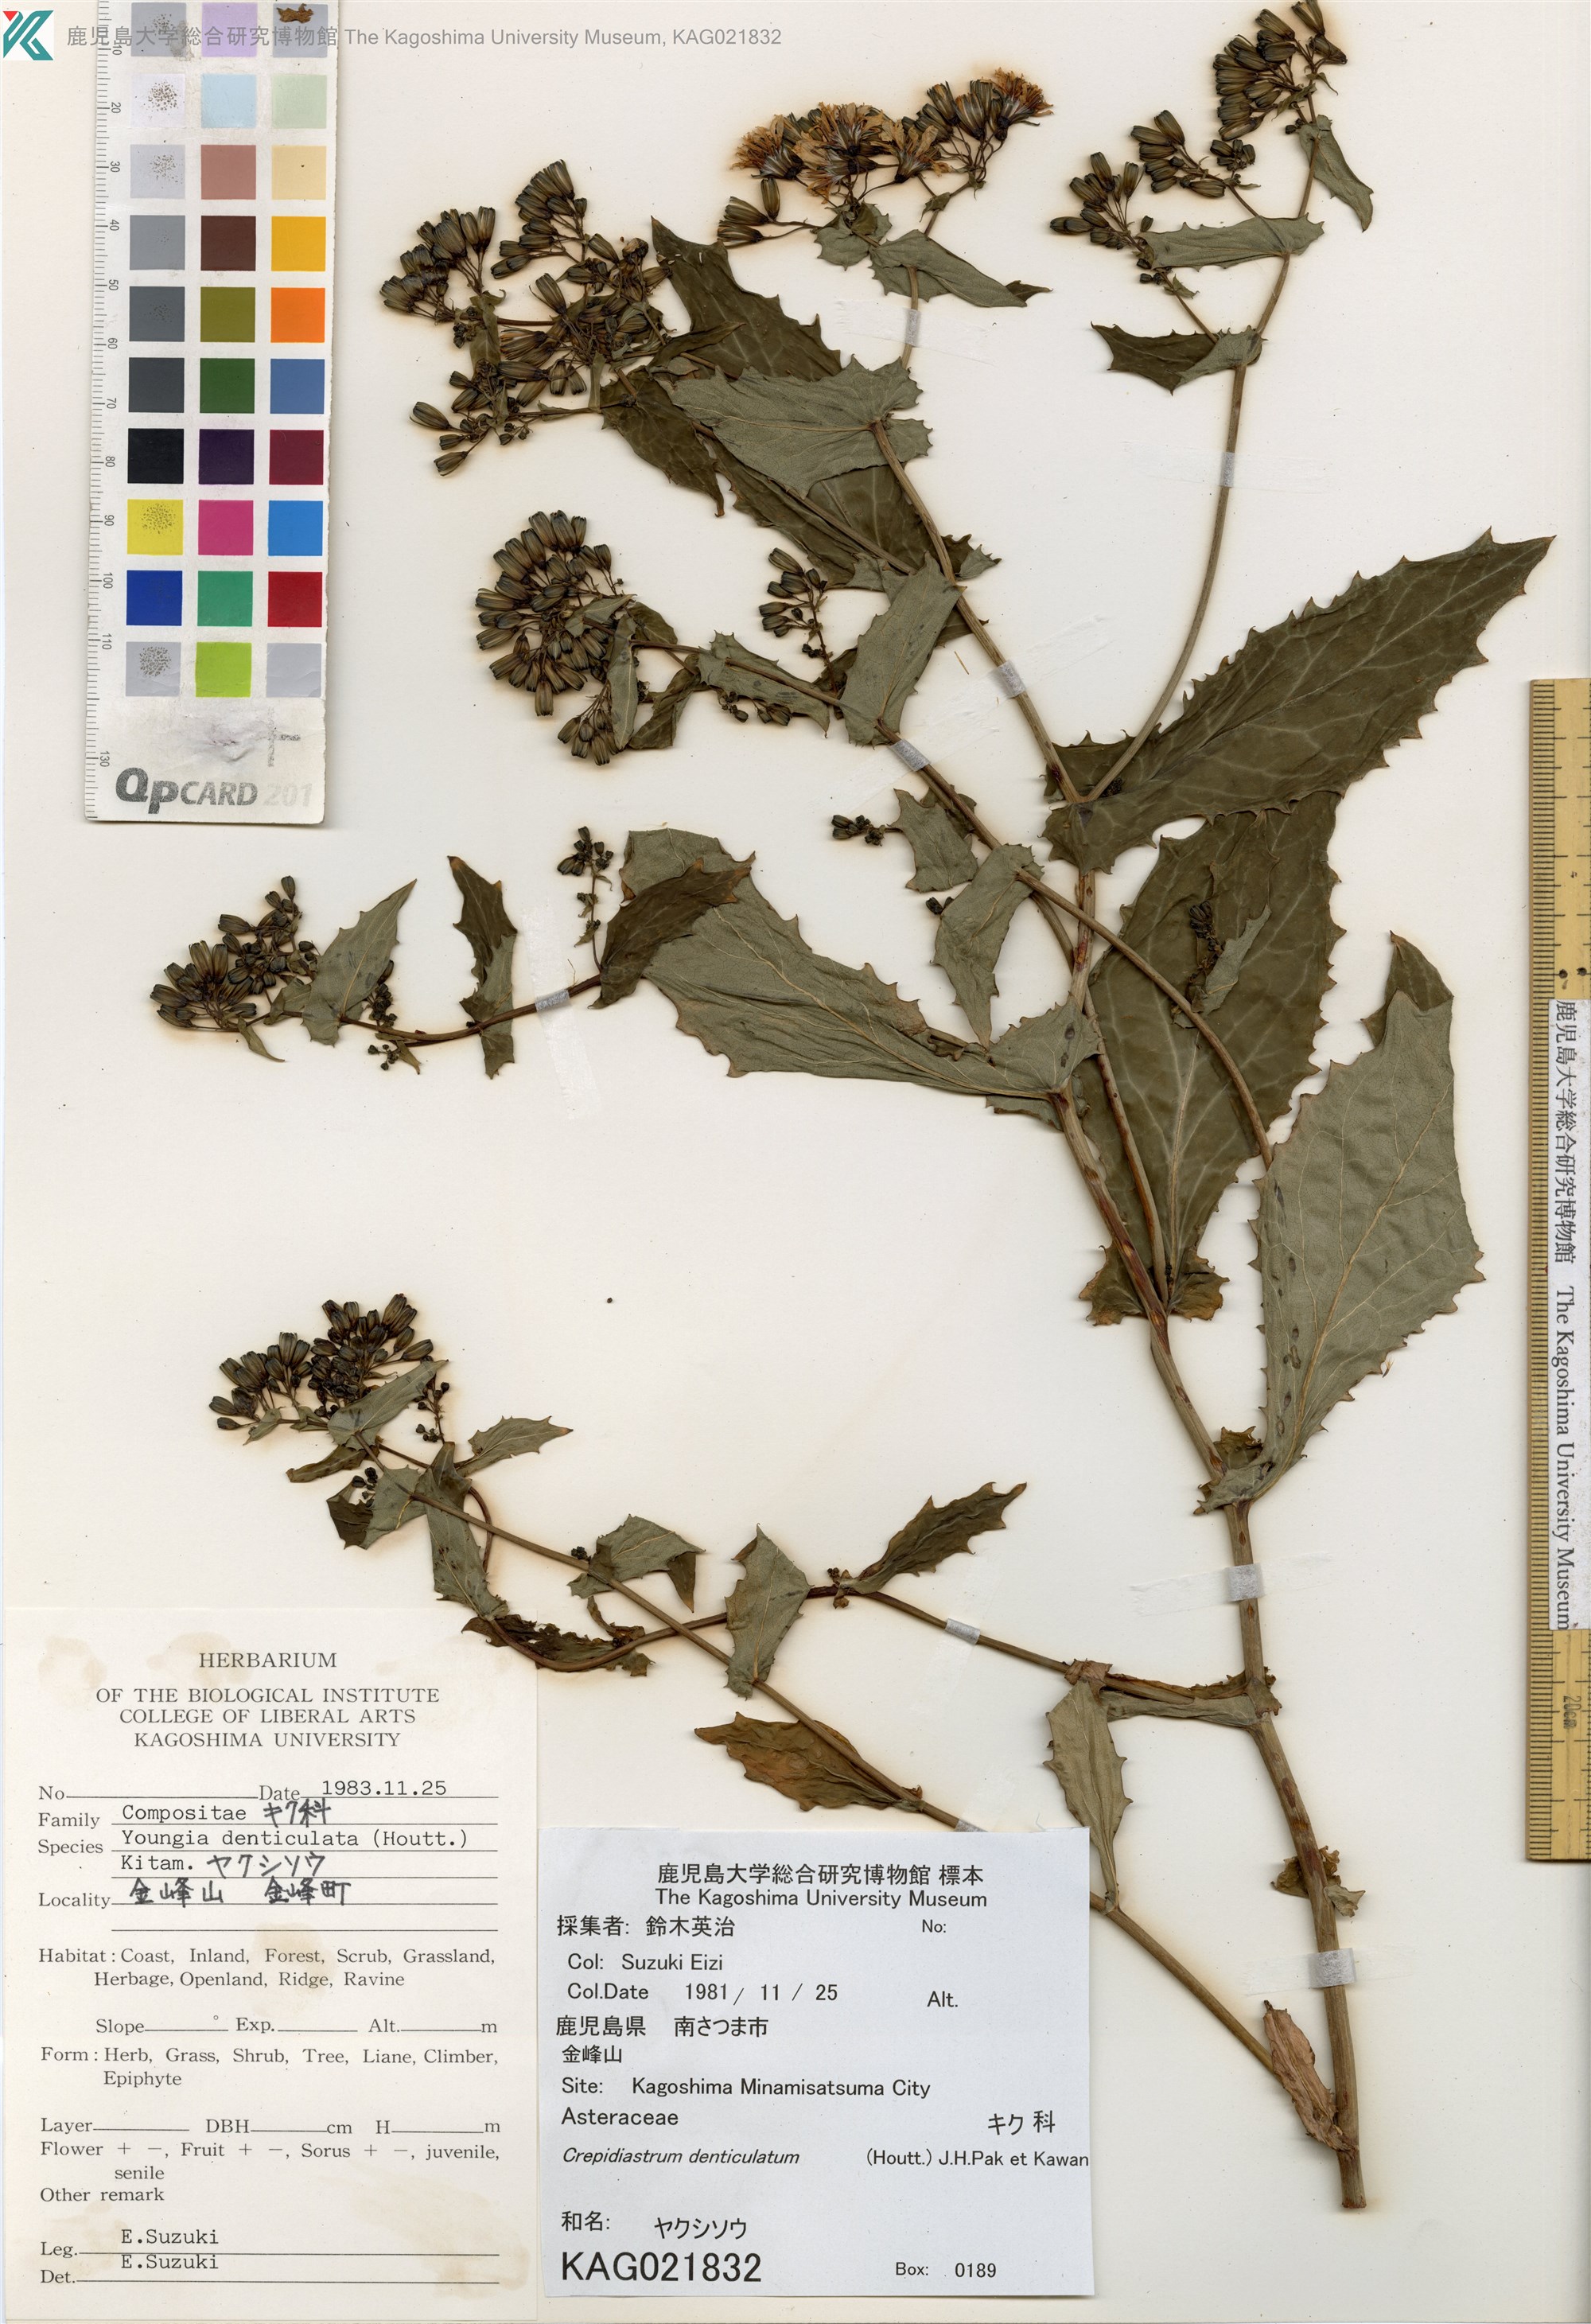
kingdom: Plantae
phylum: Tracheophyta
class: Magnoliopsida
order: Asterales
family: Asteraceae
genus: Crepidiastrum
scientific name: Crepidiastrum denticulatum
